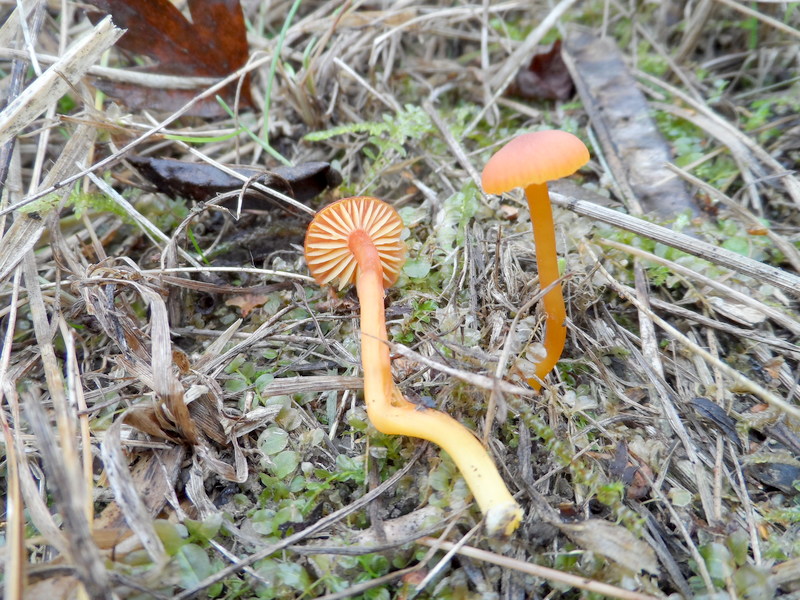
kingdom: Fungi
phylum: Basidiomycota
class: Agaricomycetes
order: Agaricales
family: Hygrophoraceae
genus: Hygrocybe
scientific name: Hygrocybe calciphila
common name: Limestone waxcap
